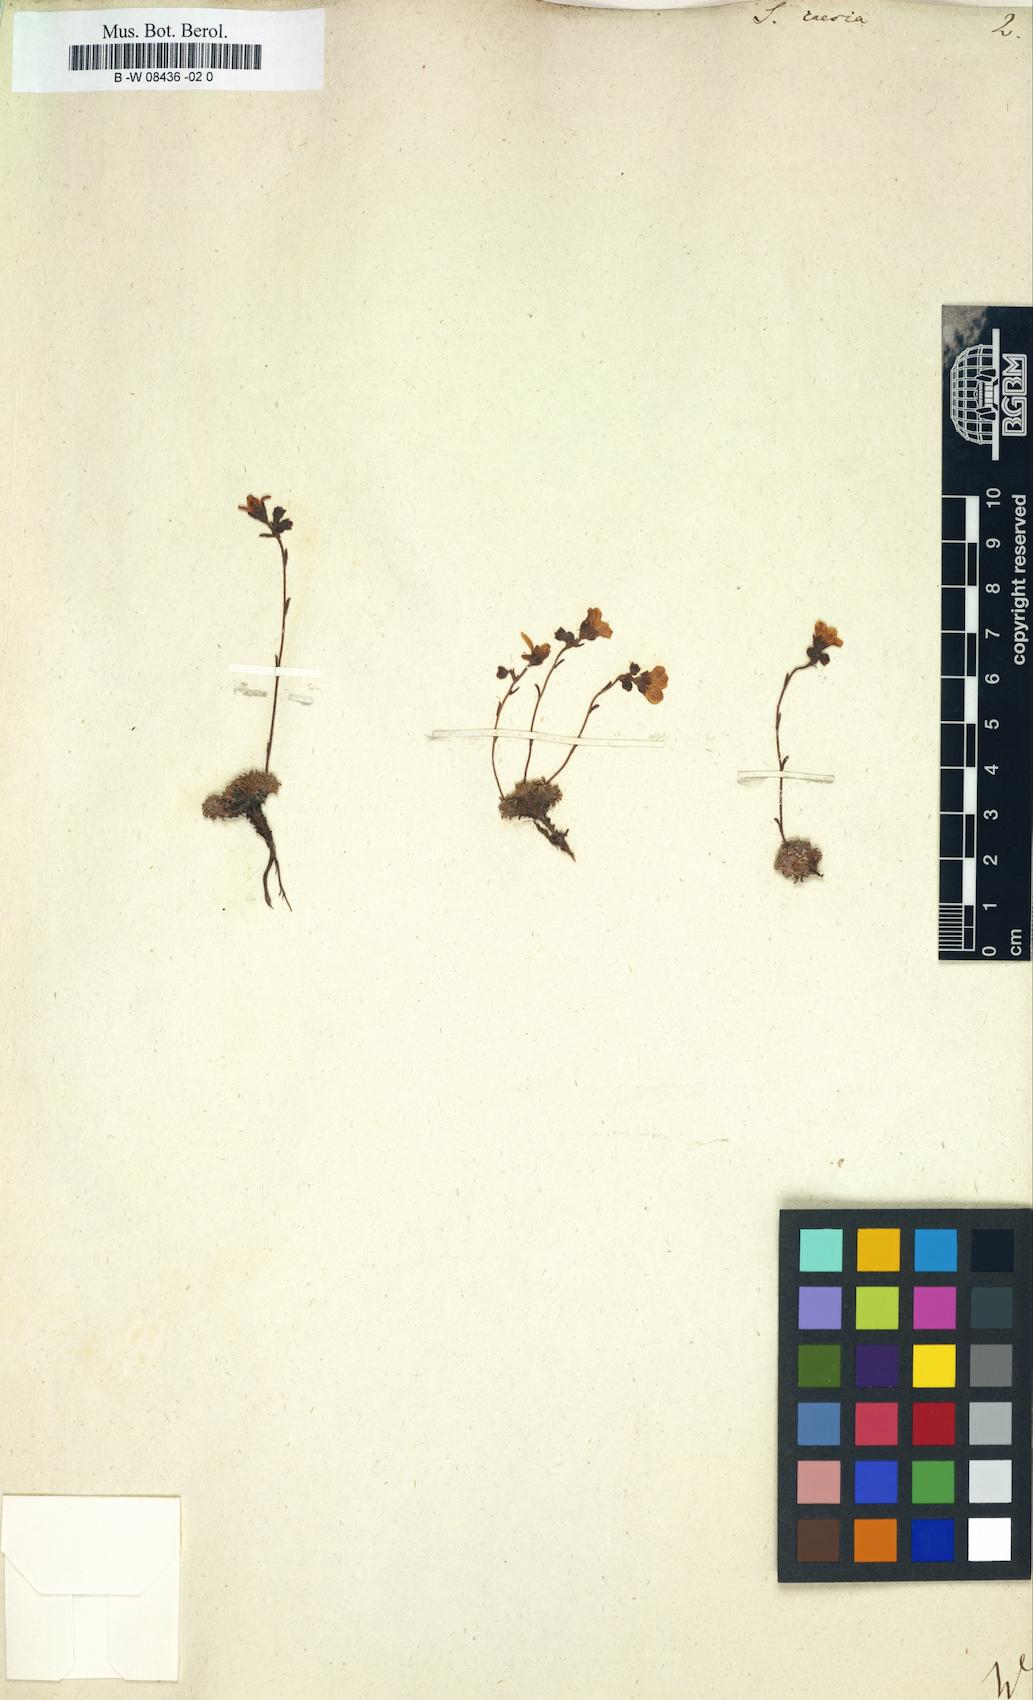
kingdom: Plantae
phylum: Tracheophyta
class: Magnoliopsida
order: Saxifragales
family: Saxifragaceae
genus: Saxifraga
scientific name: Saxifraga caesia
